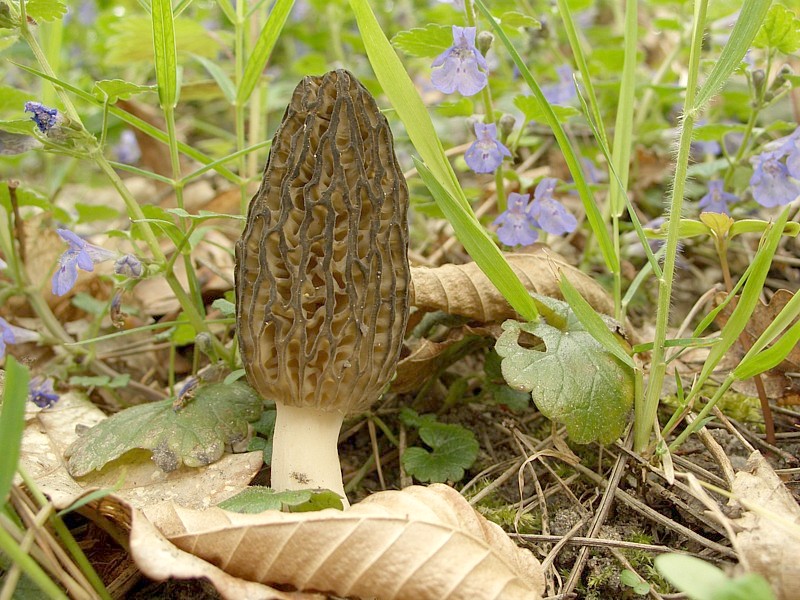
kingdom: Fungi
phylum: Ascomycota
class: Pezizomycetes
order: Pezizales
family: Morchellaceae
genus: Morchella
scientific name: Morchella esculenta
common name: Morel
